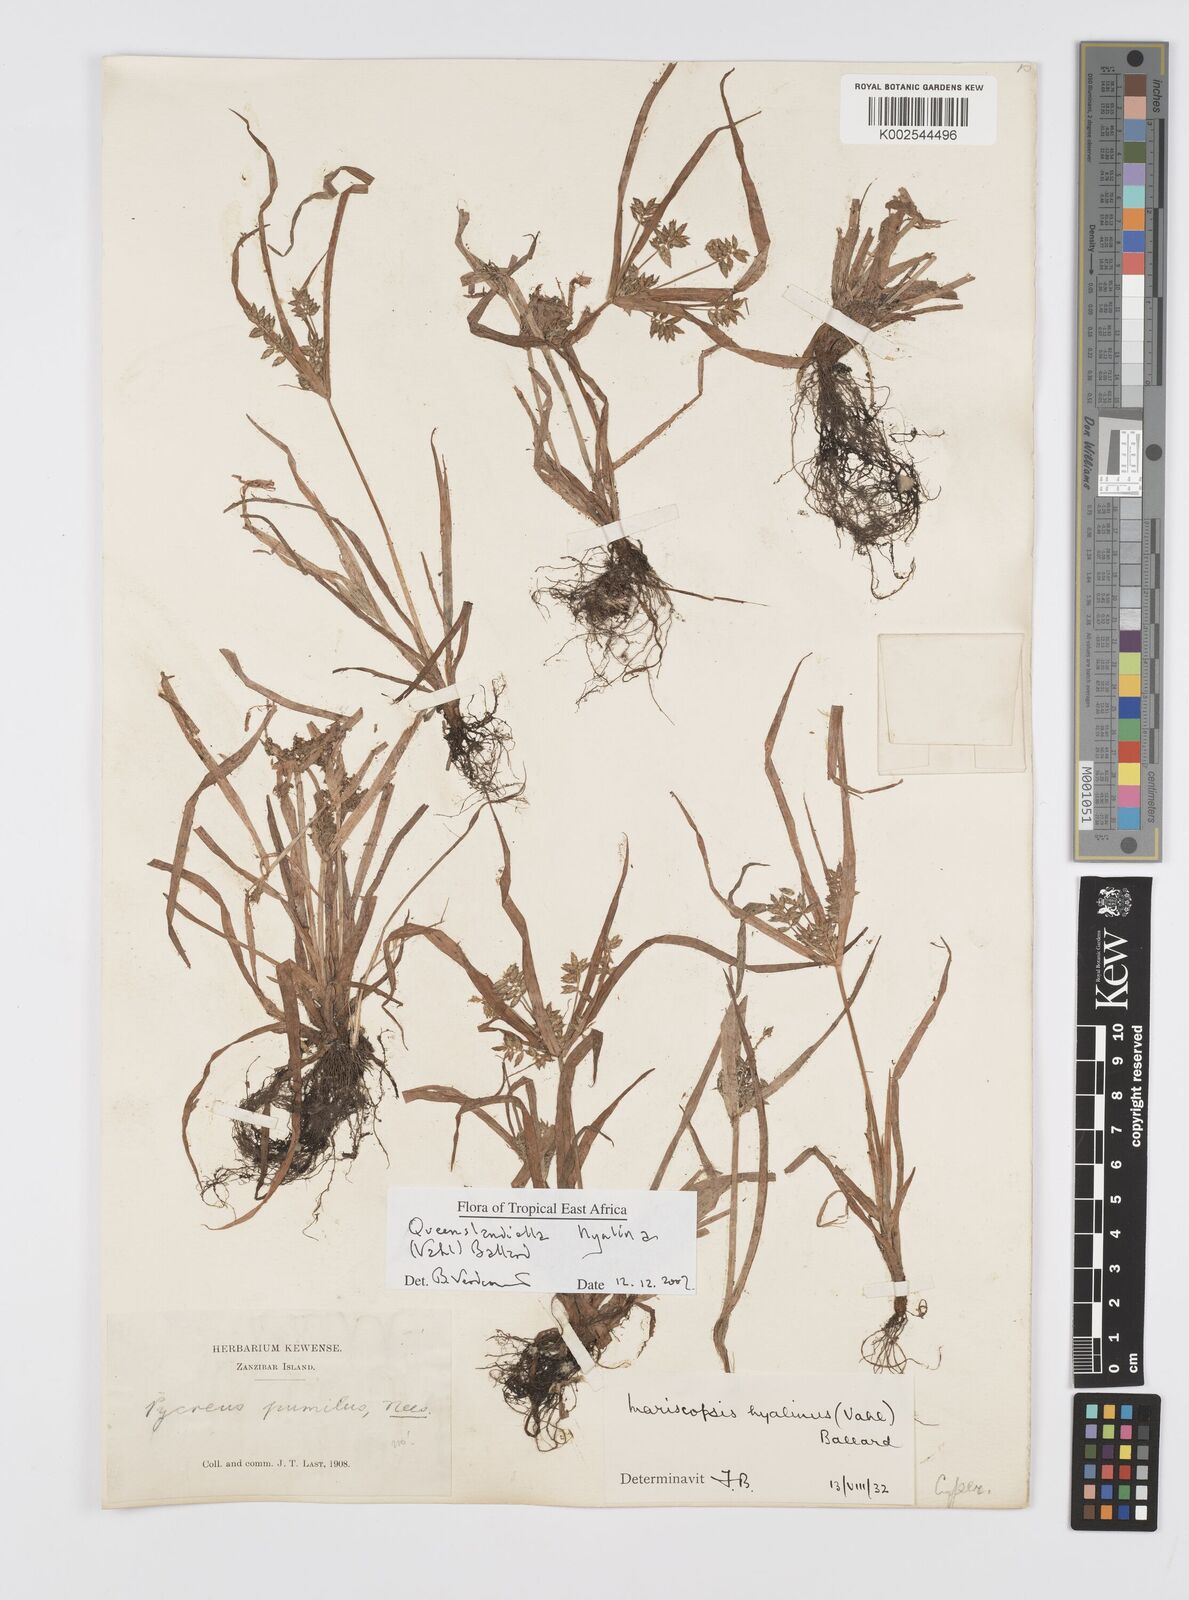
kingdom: Plantae
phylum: Tracheophyta
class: Liliopsida
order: Poales
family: Cyperaceae
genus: Cyperus
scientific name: Cyperus hyalinus
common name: Queensland sedge
